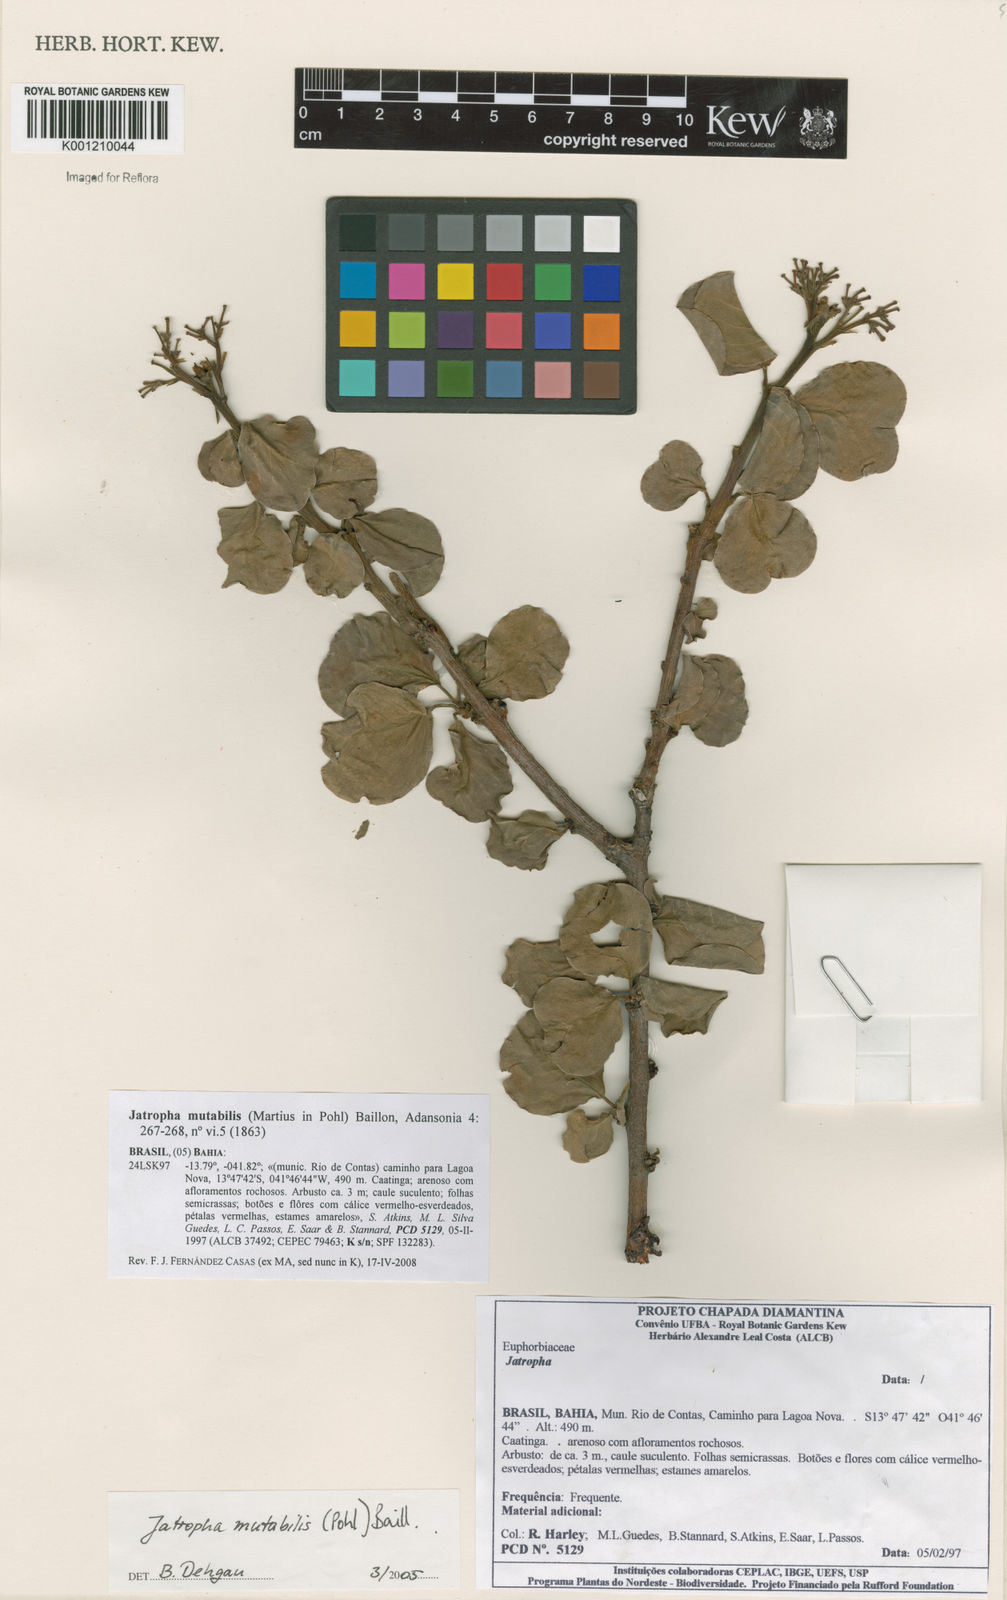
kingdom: Plantae
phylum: Tracheophyta
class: Magnoliopsida
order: Malpighiales
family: Euphorbiaceae
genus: Jatropha
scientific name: Jatropha mutabilis
